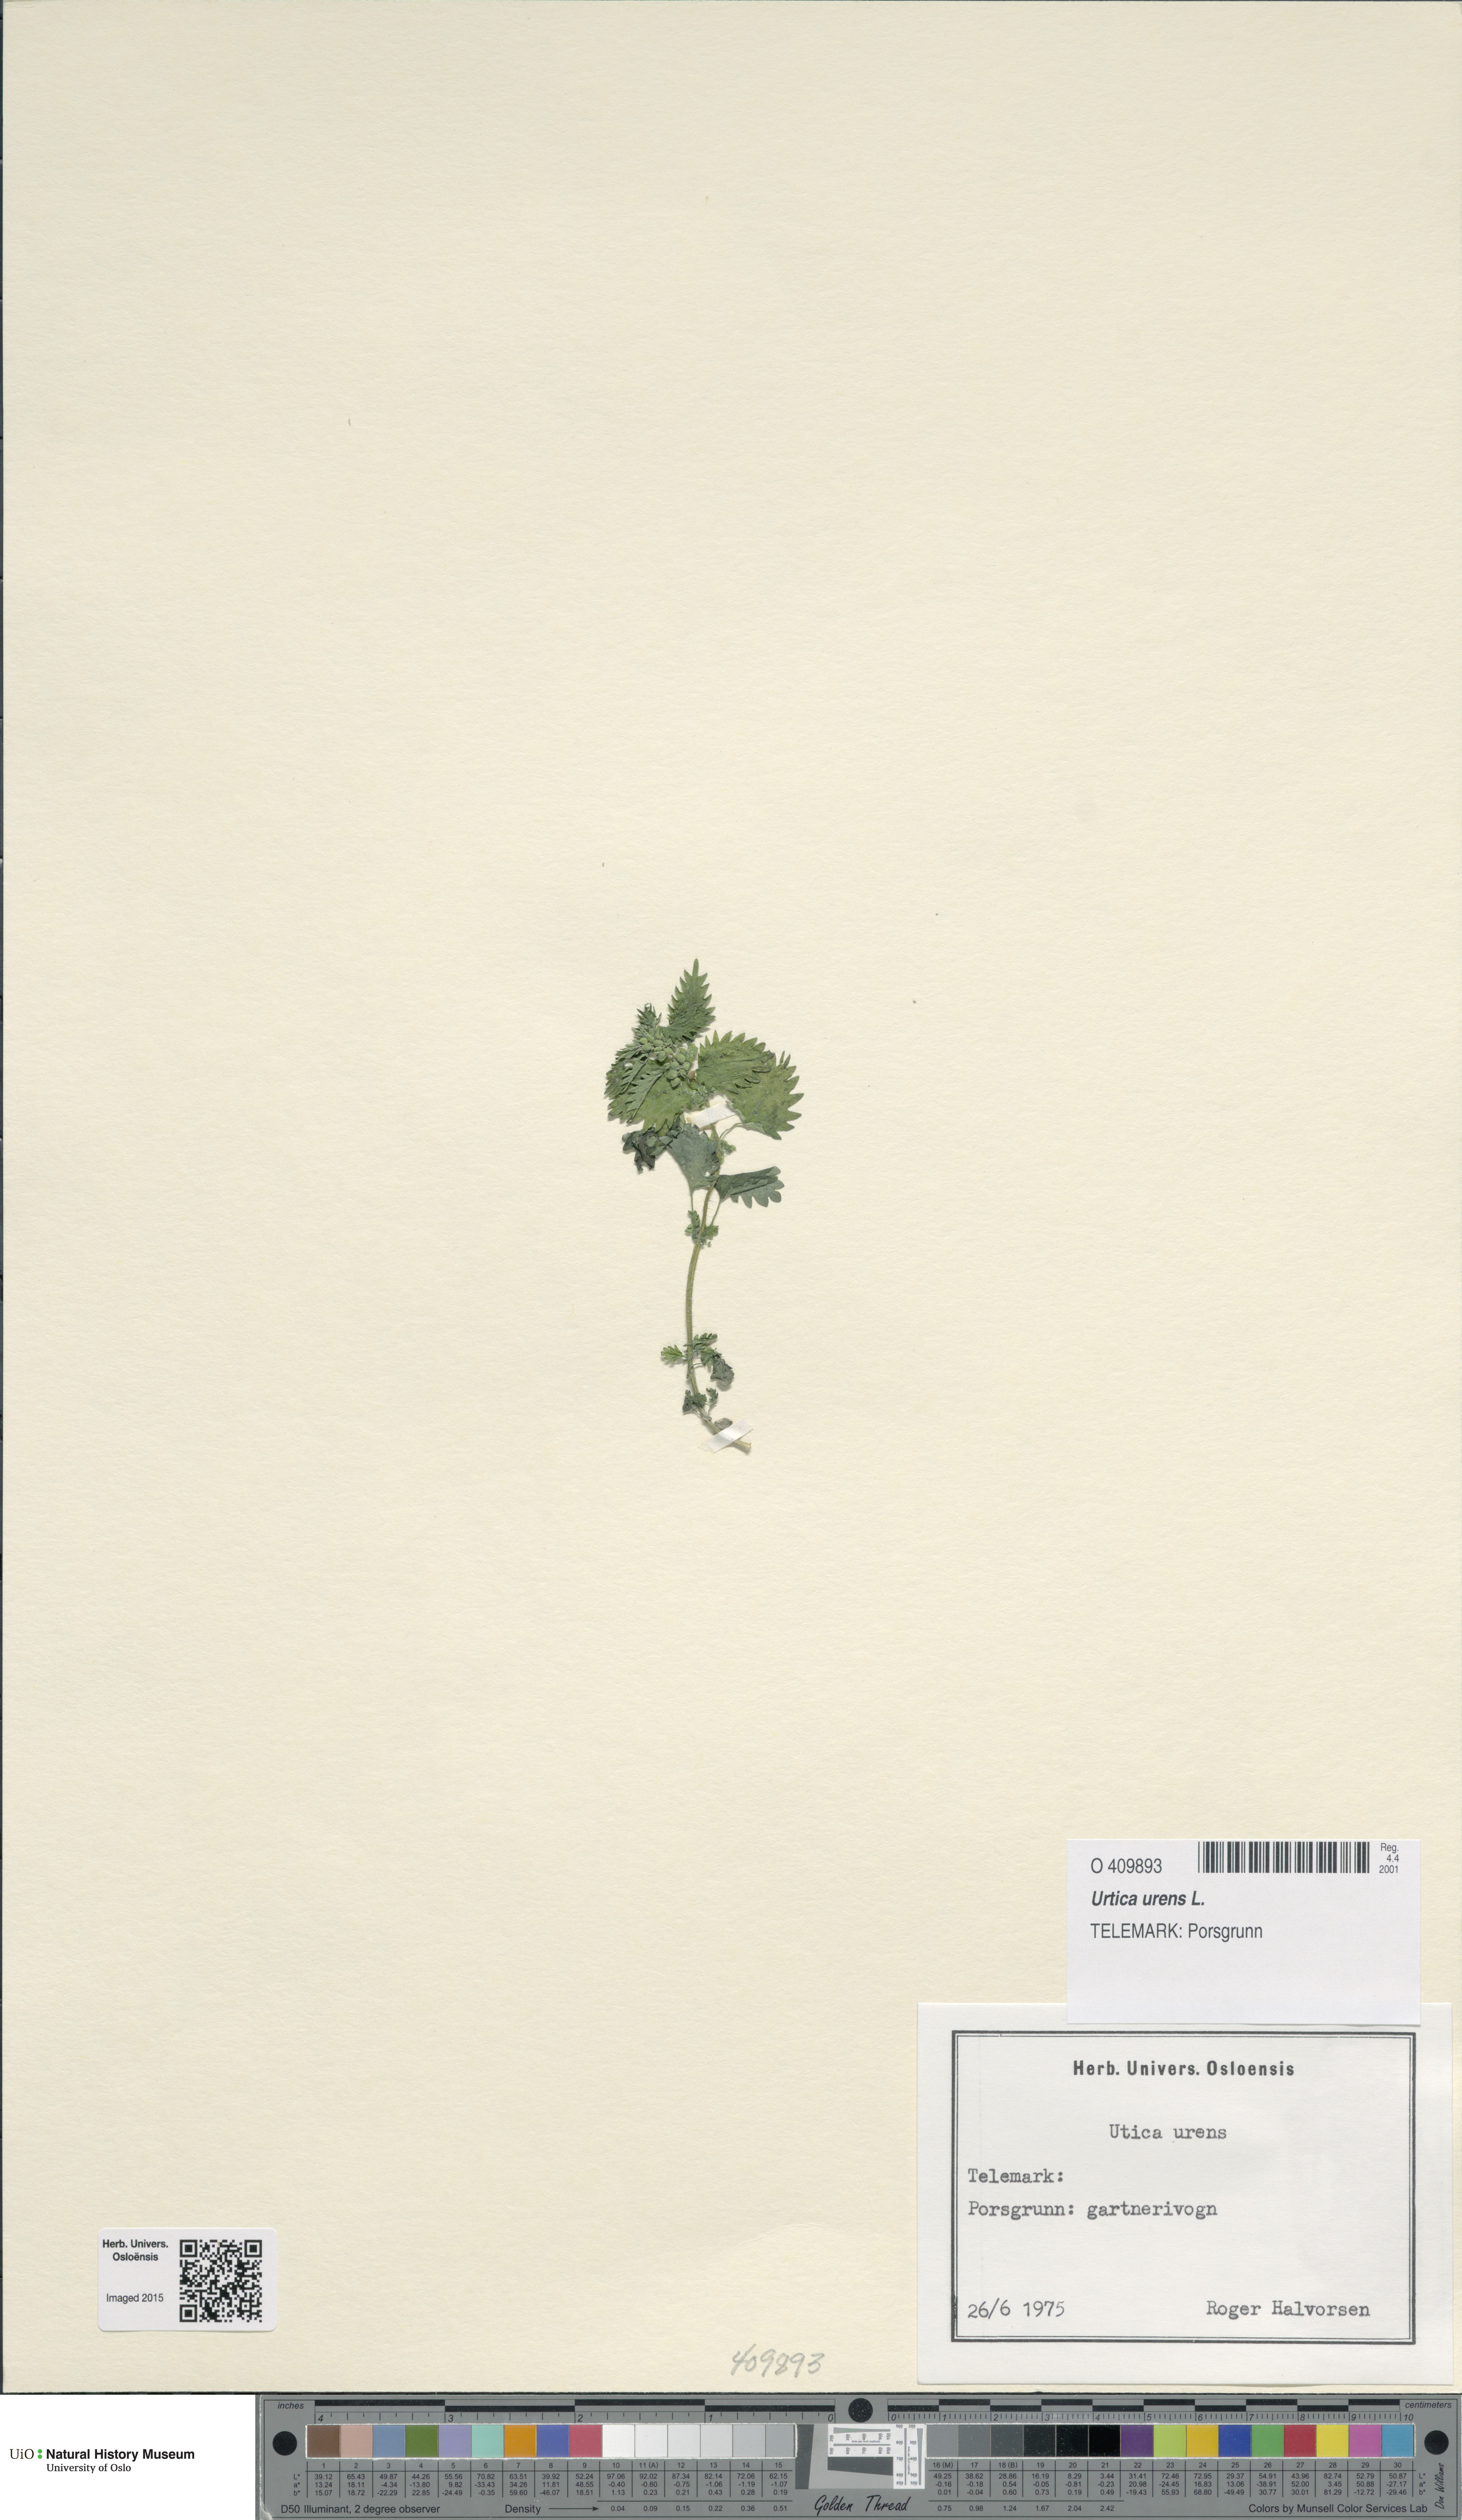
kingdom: Plantae
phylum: Tracheophyta
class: Magnoliopsida
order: Rosales
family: Urticaceae
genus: Urtica
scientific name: Urtica urens
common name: Dwarf nettle
